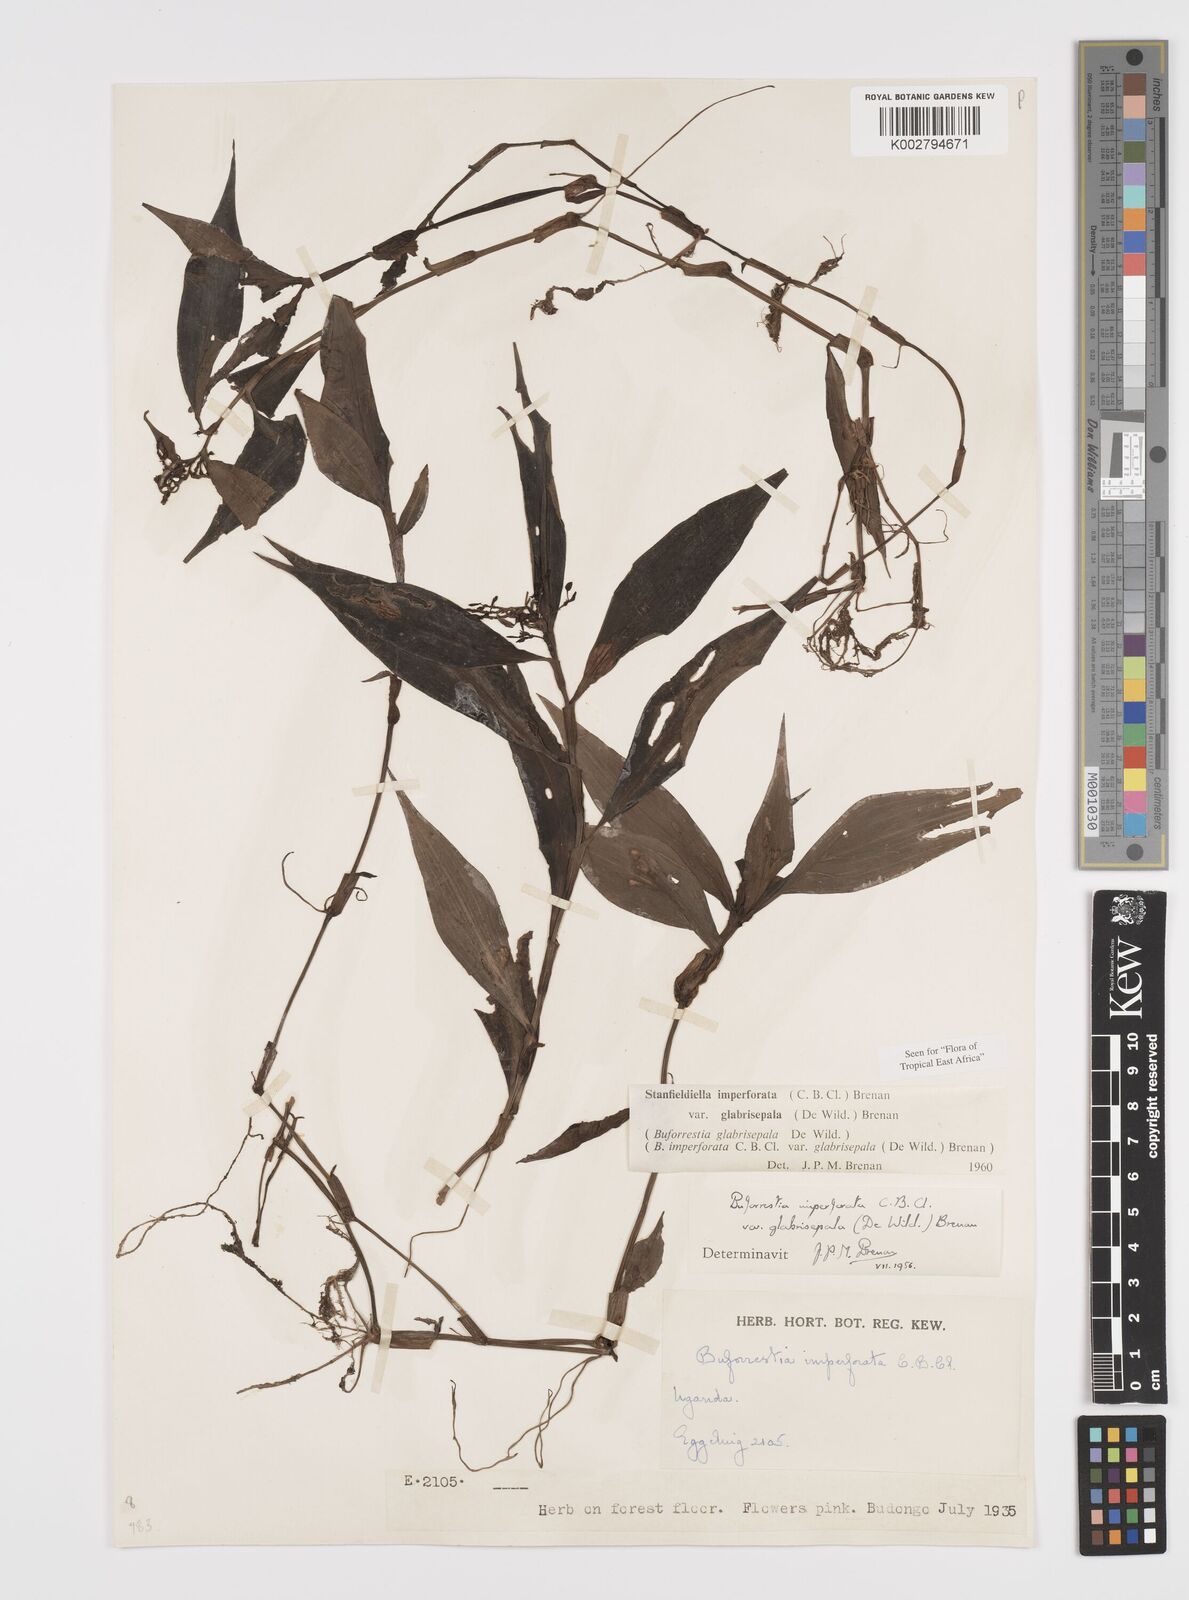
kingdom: Plantae
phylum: Tracheophyta
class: Liliopsida
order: Commelinales
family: Commelinaceae
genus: Stanfieldiella
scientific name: Stanfieldiella imperforata
